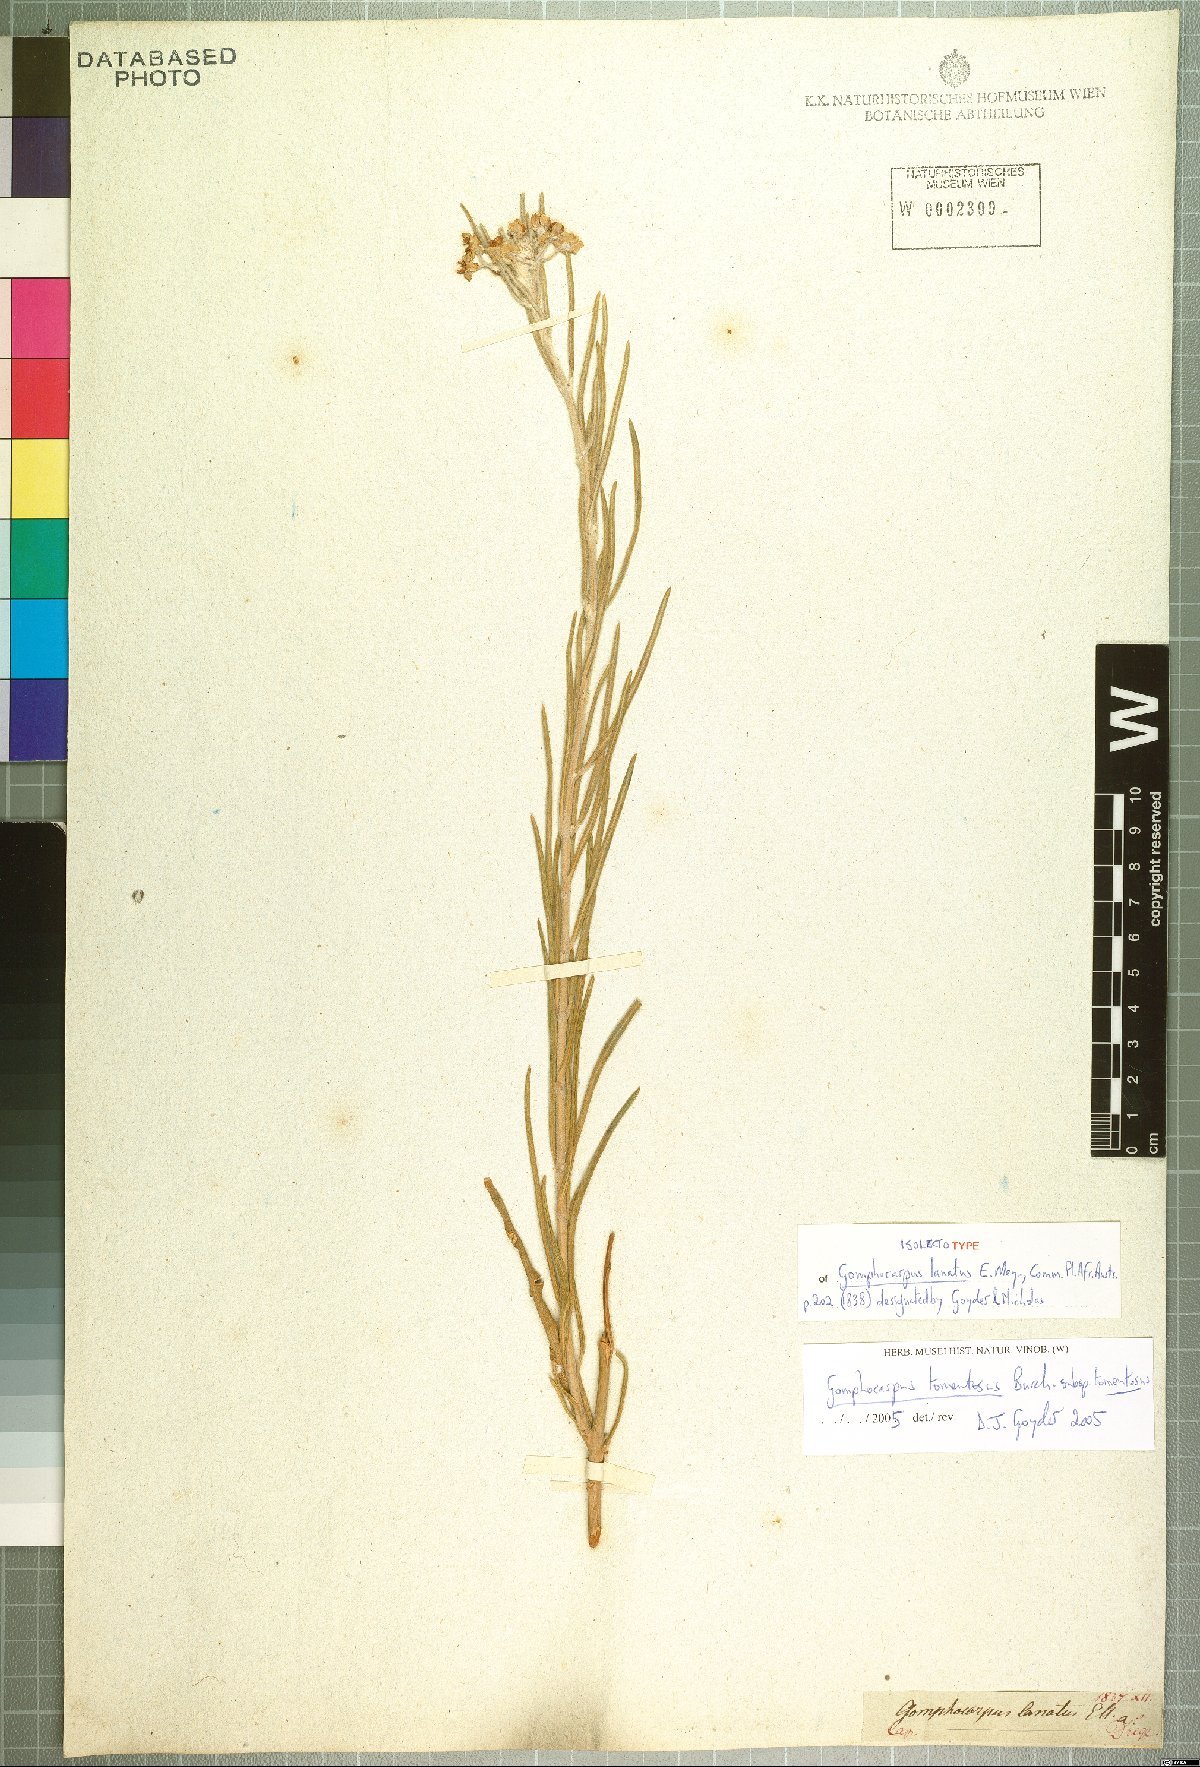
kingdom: Plantae
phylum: Tracheophyta
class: Magnoliopsida
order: Gentianales
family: Apocynaceae
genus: Gomphocarpus
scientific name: Gomphocarpus tomentosus
